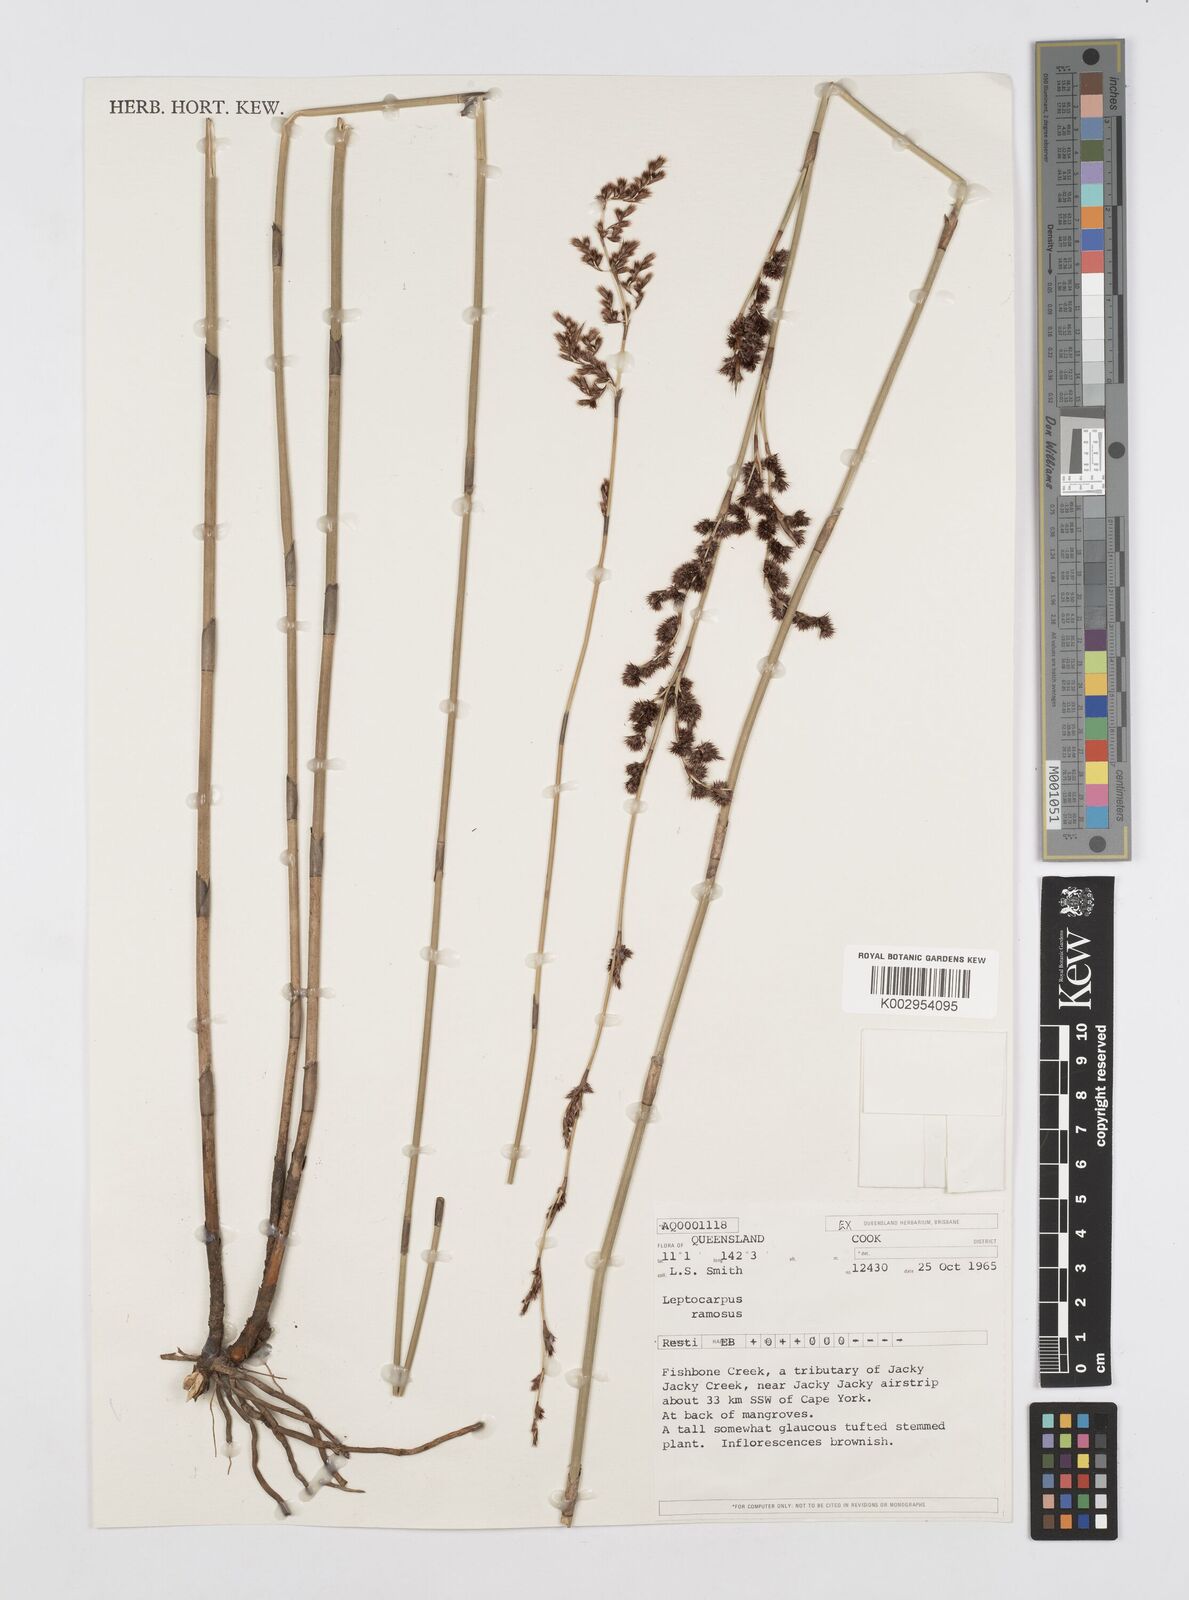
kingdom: Plantae
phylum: Tracheophyta
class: Liliopsida
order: Poales
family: Restionaceae
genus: Dapsilanthus
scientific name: Dapsilanthus ramosus
